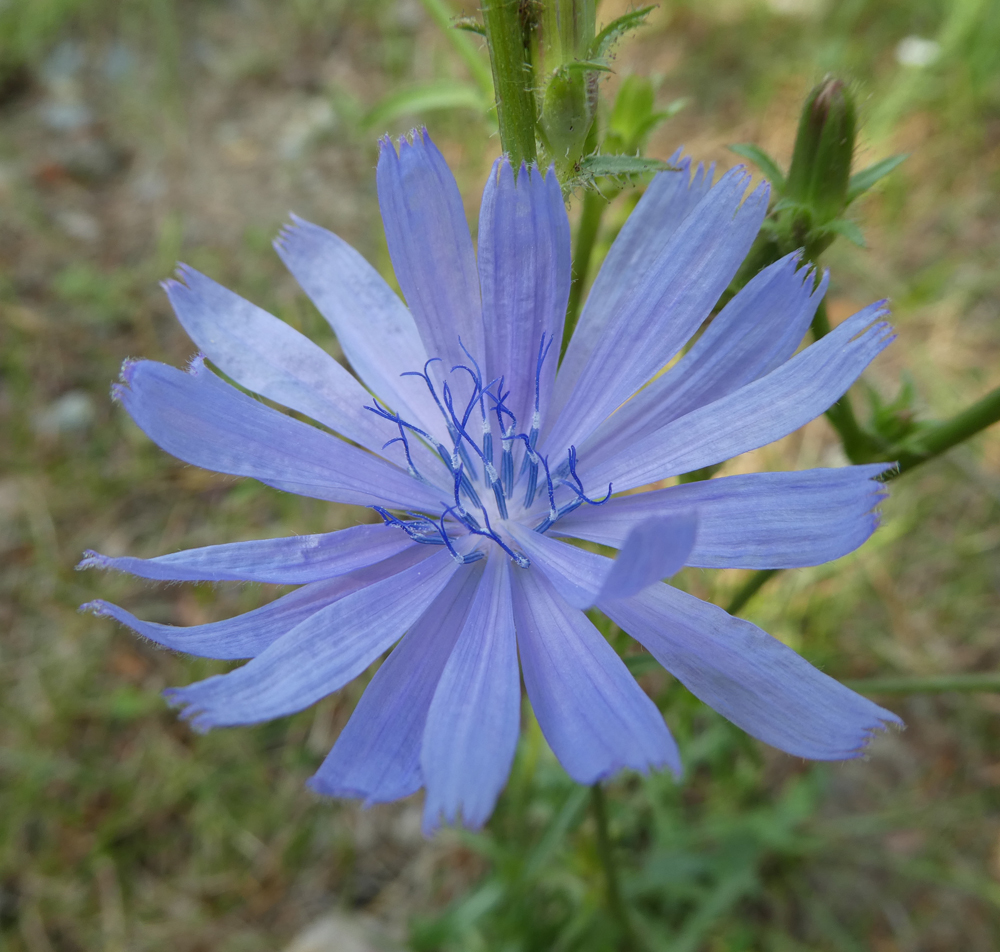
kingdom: Plantae
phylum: Tracheophyta
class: Magnoliopsida
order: Asterales
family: Asteraceae
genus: Cichorium
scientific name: Cichorium intybus
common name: Chicory
